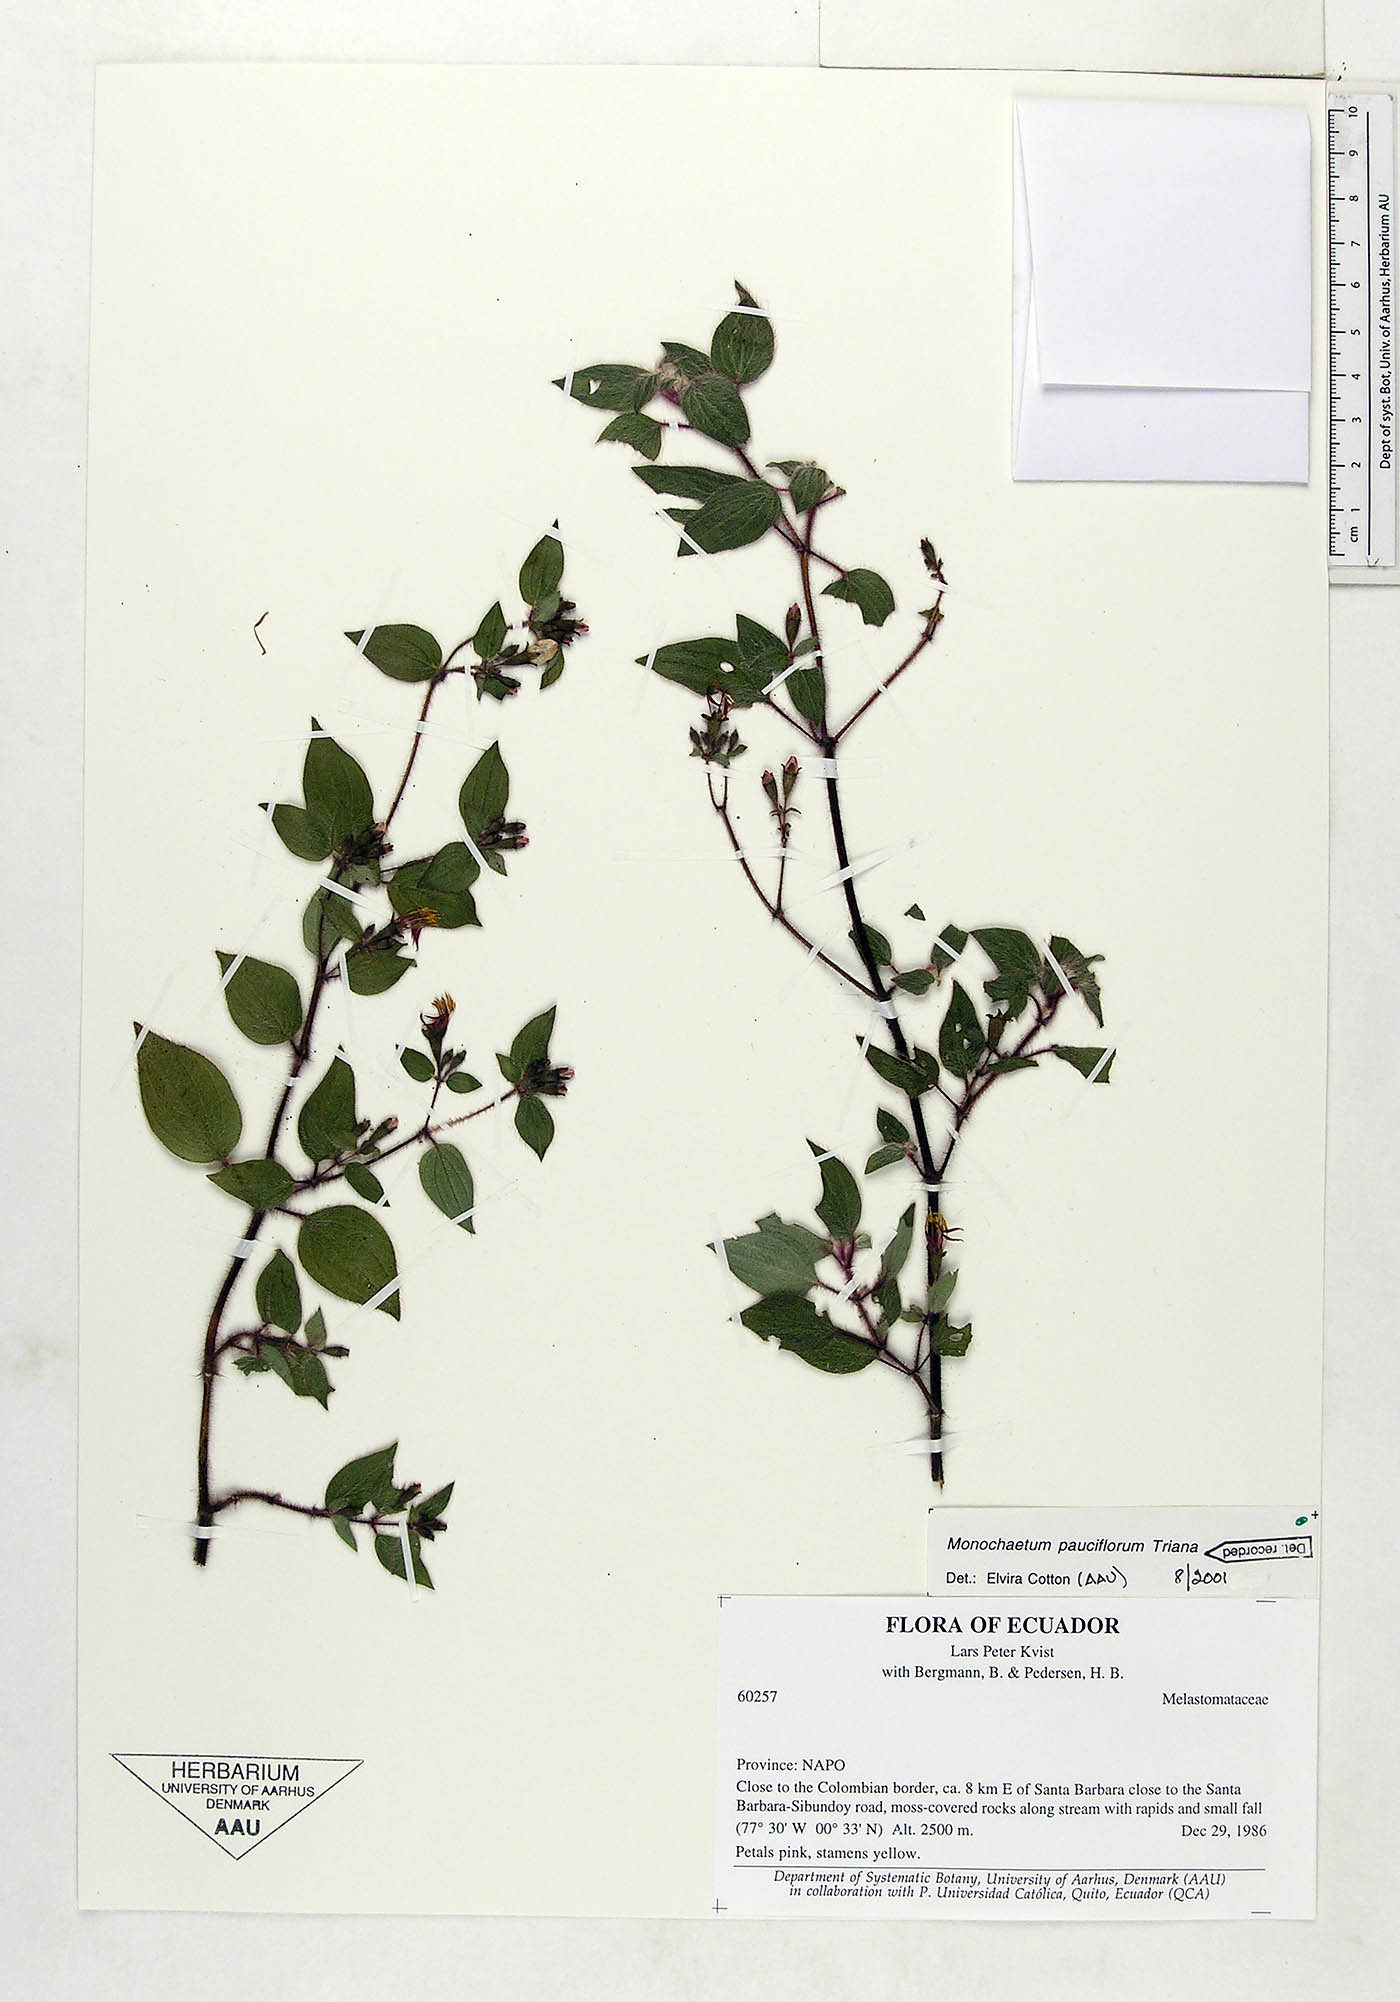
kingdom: Plantae
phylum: Tracheophyta
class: Magnoliopsida
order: Myrtales
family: Melastomataceae
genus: Monochaetum
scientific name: Monochaetum glanduliferum
